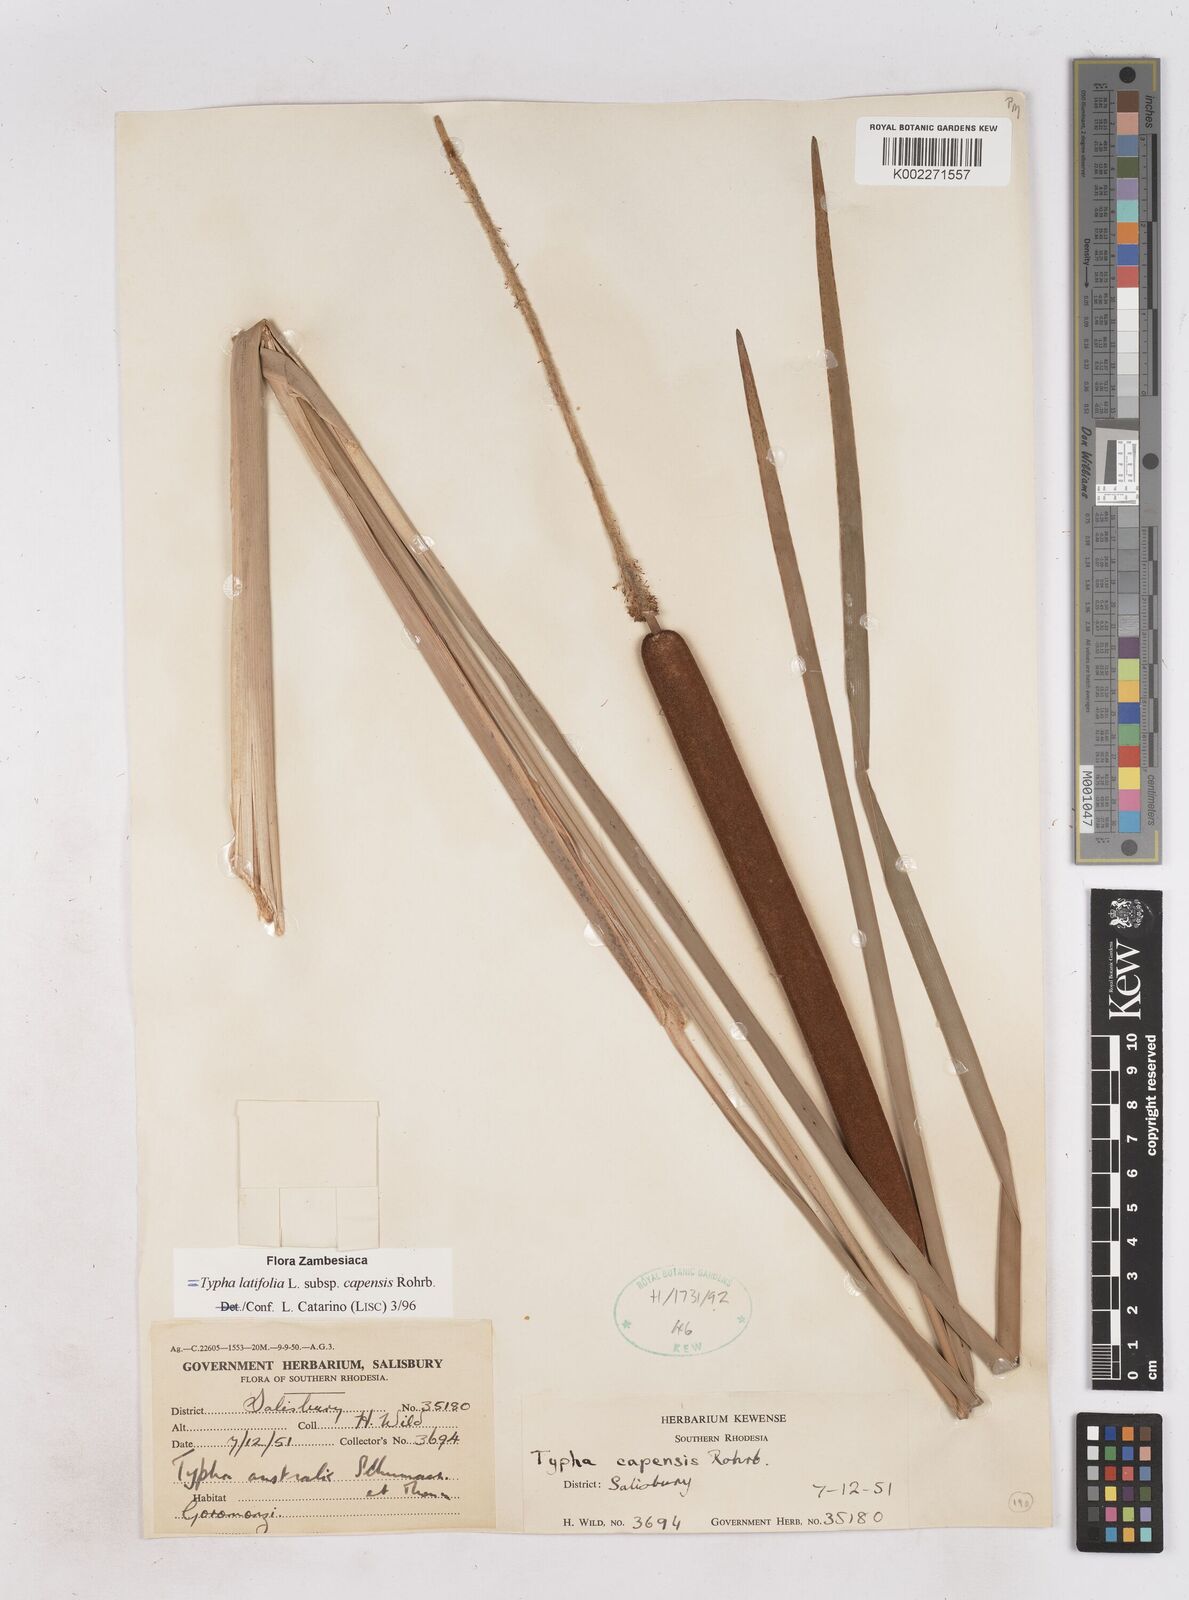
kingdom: Plantae
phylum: Tracheophyta
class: Liliopsida
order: Poales
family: Typhaceae
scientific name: Typhaceae
